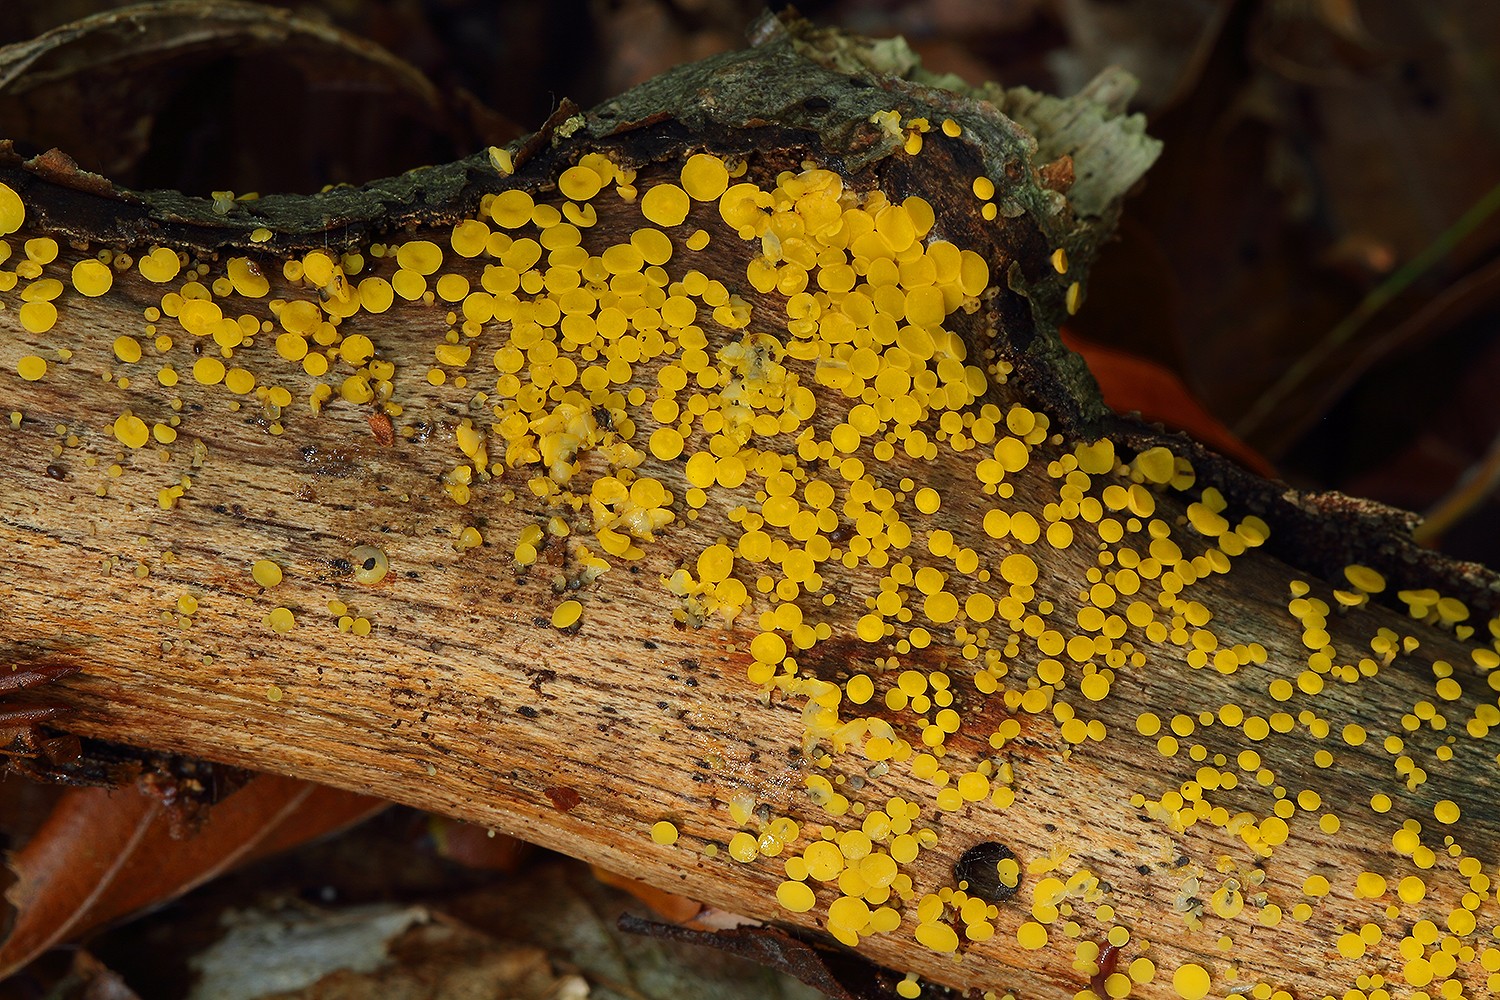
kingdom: Fungi
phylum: Ascomycota
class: Leotiomycetes
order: Helotiales
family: Pezizellaceae
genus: Calycina
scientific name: Calycina citrina
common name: almindelig gulskive
